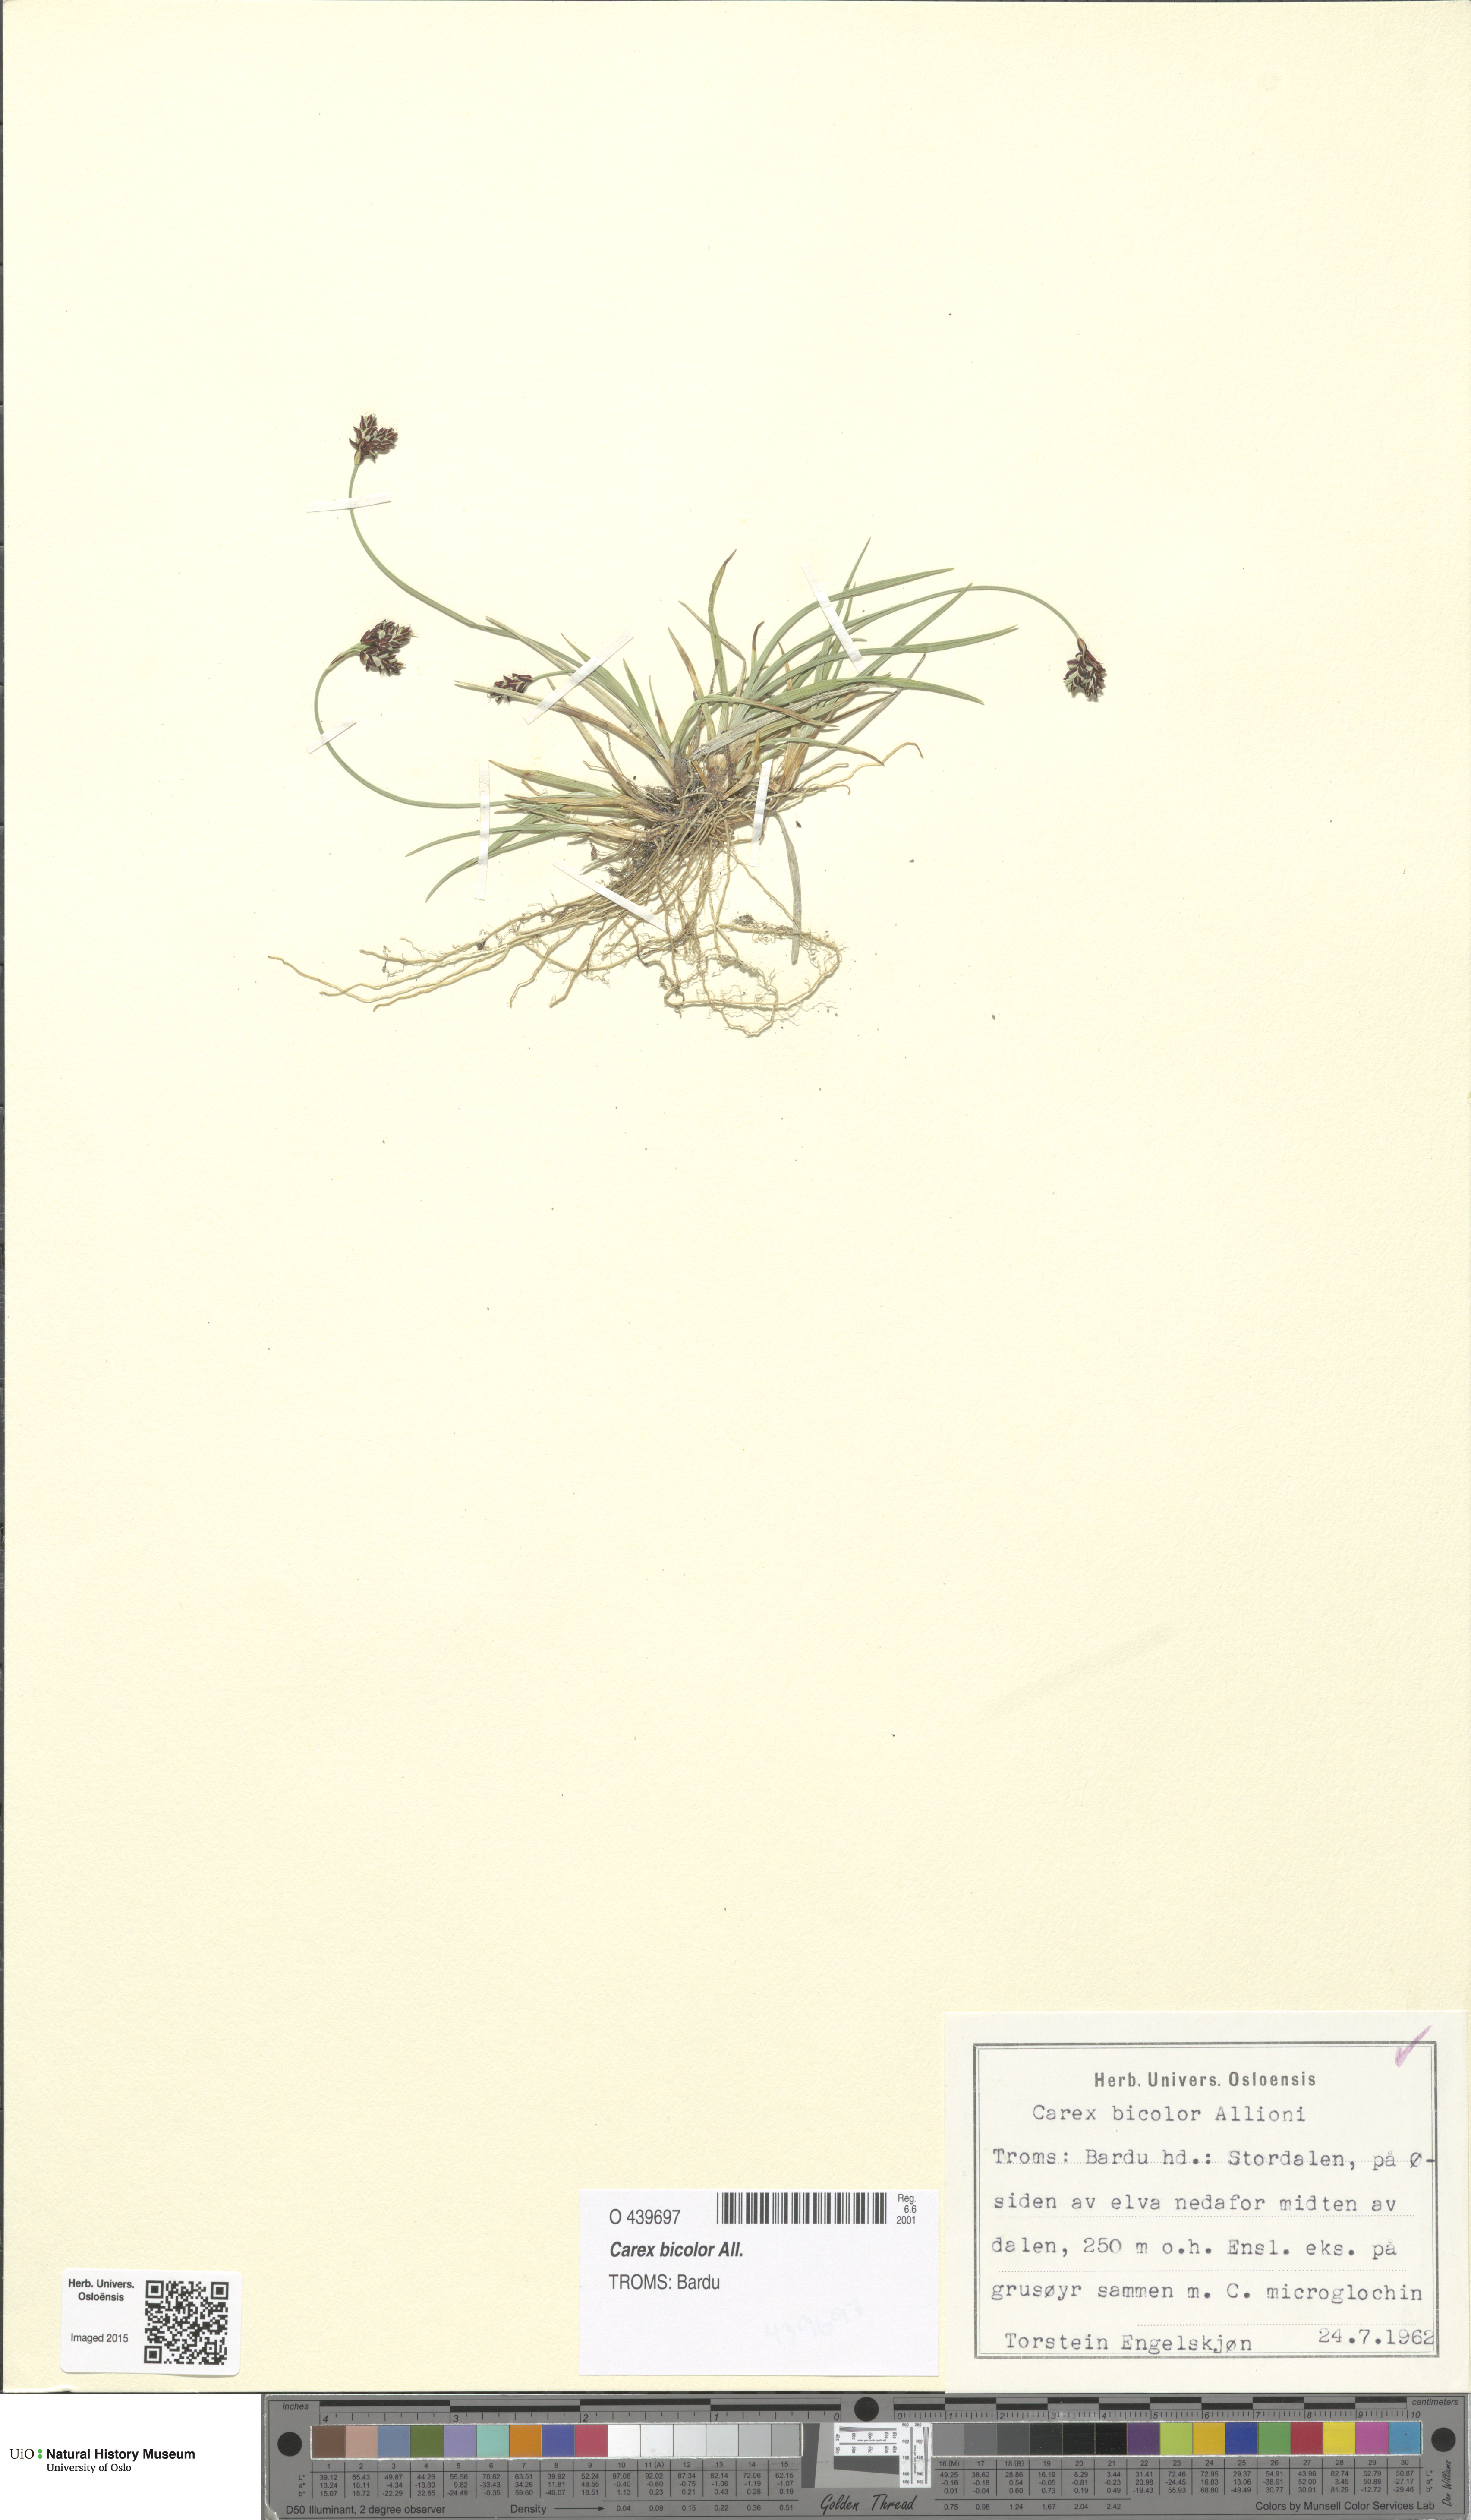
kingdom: Plantae
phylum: Tracheophyta
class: Liliopsida
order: Poales
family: Cyperaceae
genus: Carex
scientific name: Carex bicolor
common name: Bicoloured sedge
